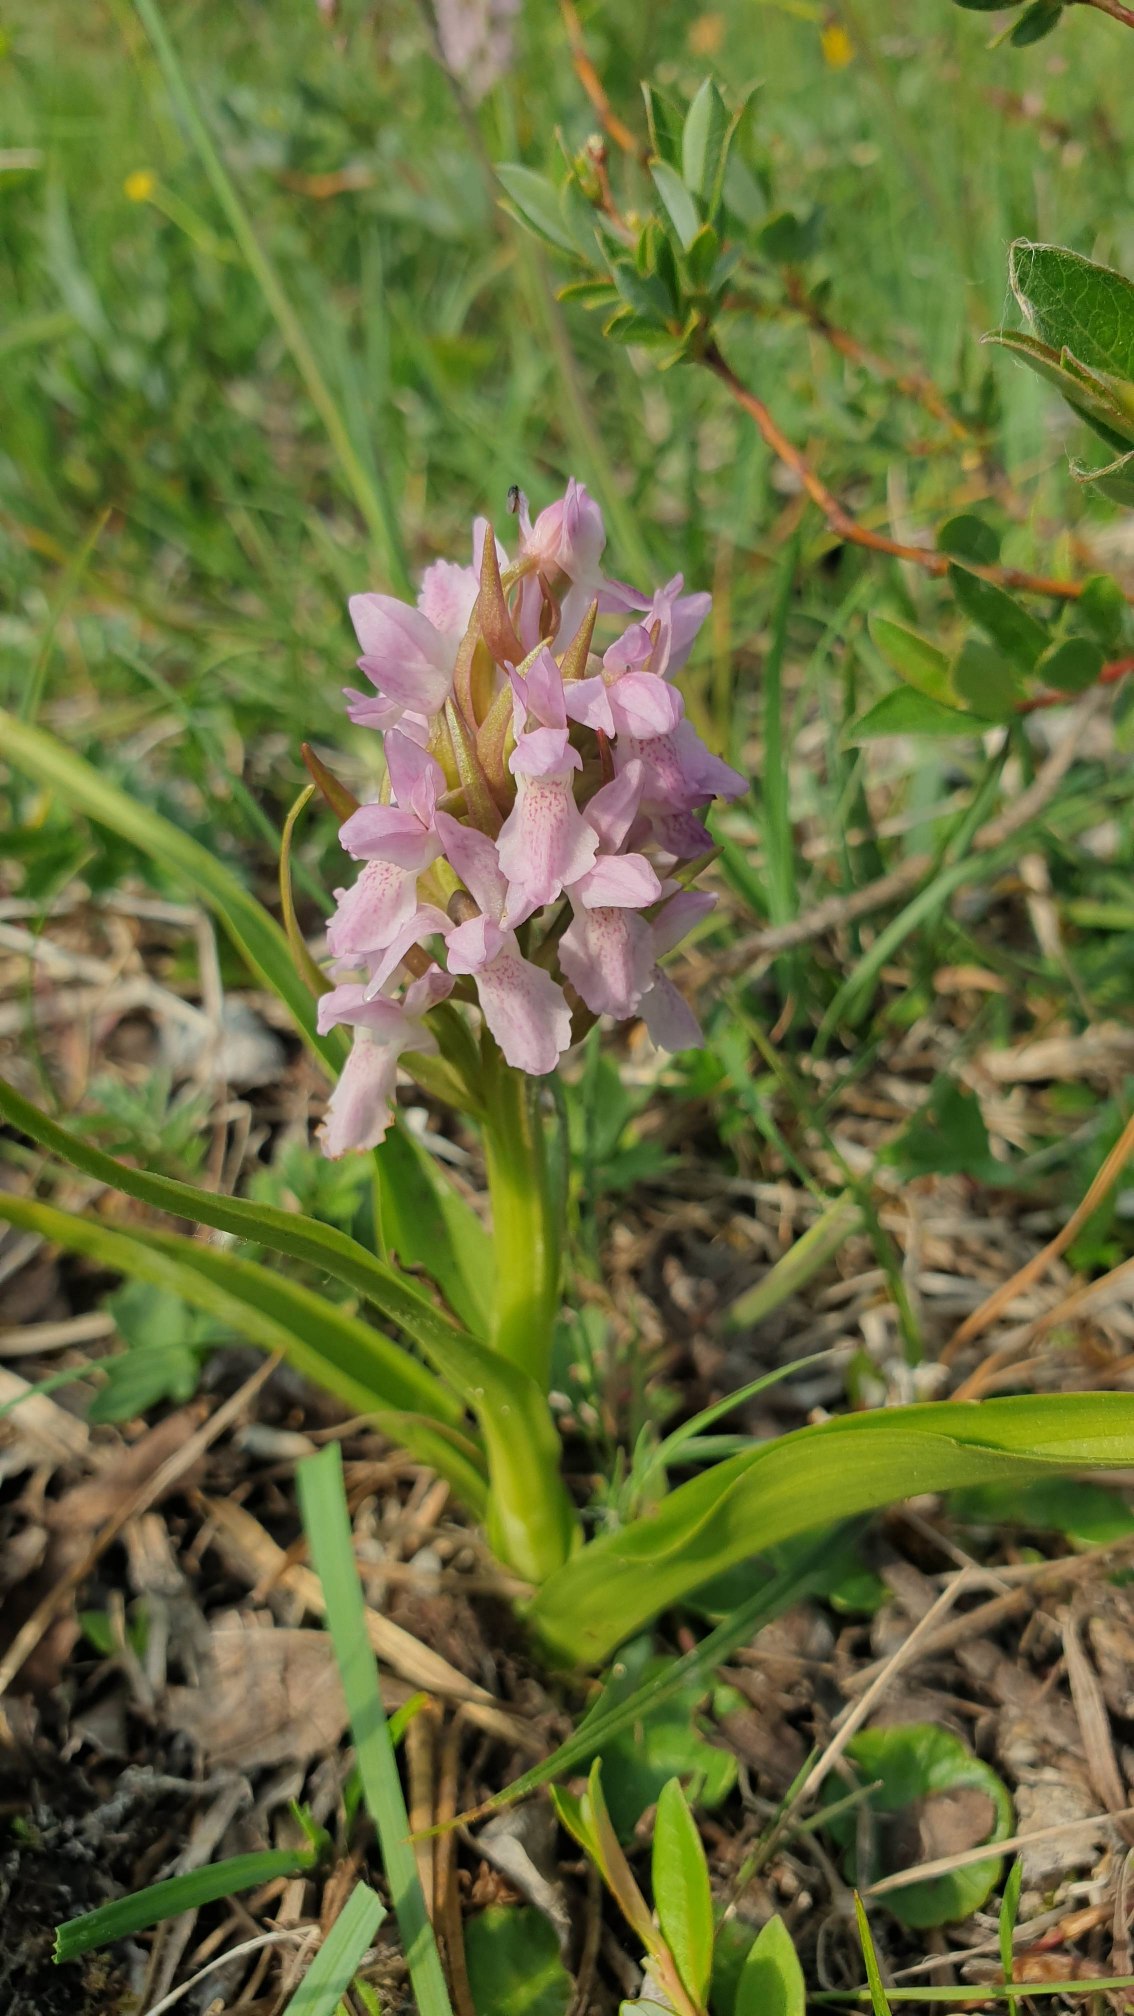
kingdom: Plantae
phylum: Tracheophyta
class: Liliopsida
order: Asparagales
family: Orchidaceae
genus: Dactylorhiza
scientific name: Dactylorhiza incarnata
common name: Kødfarvet gøgeurt
